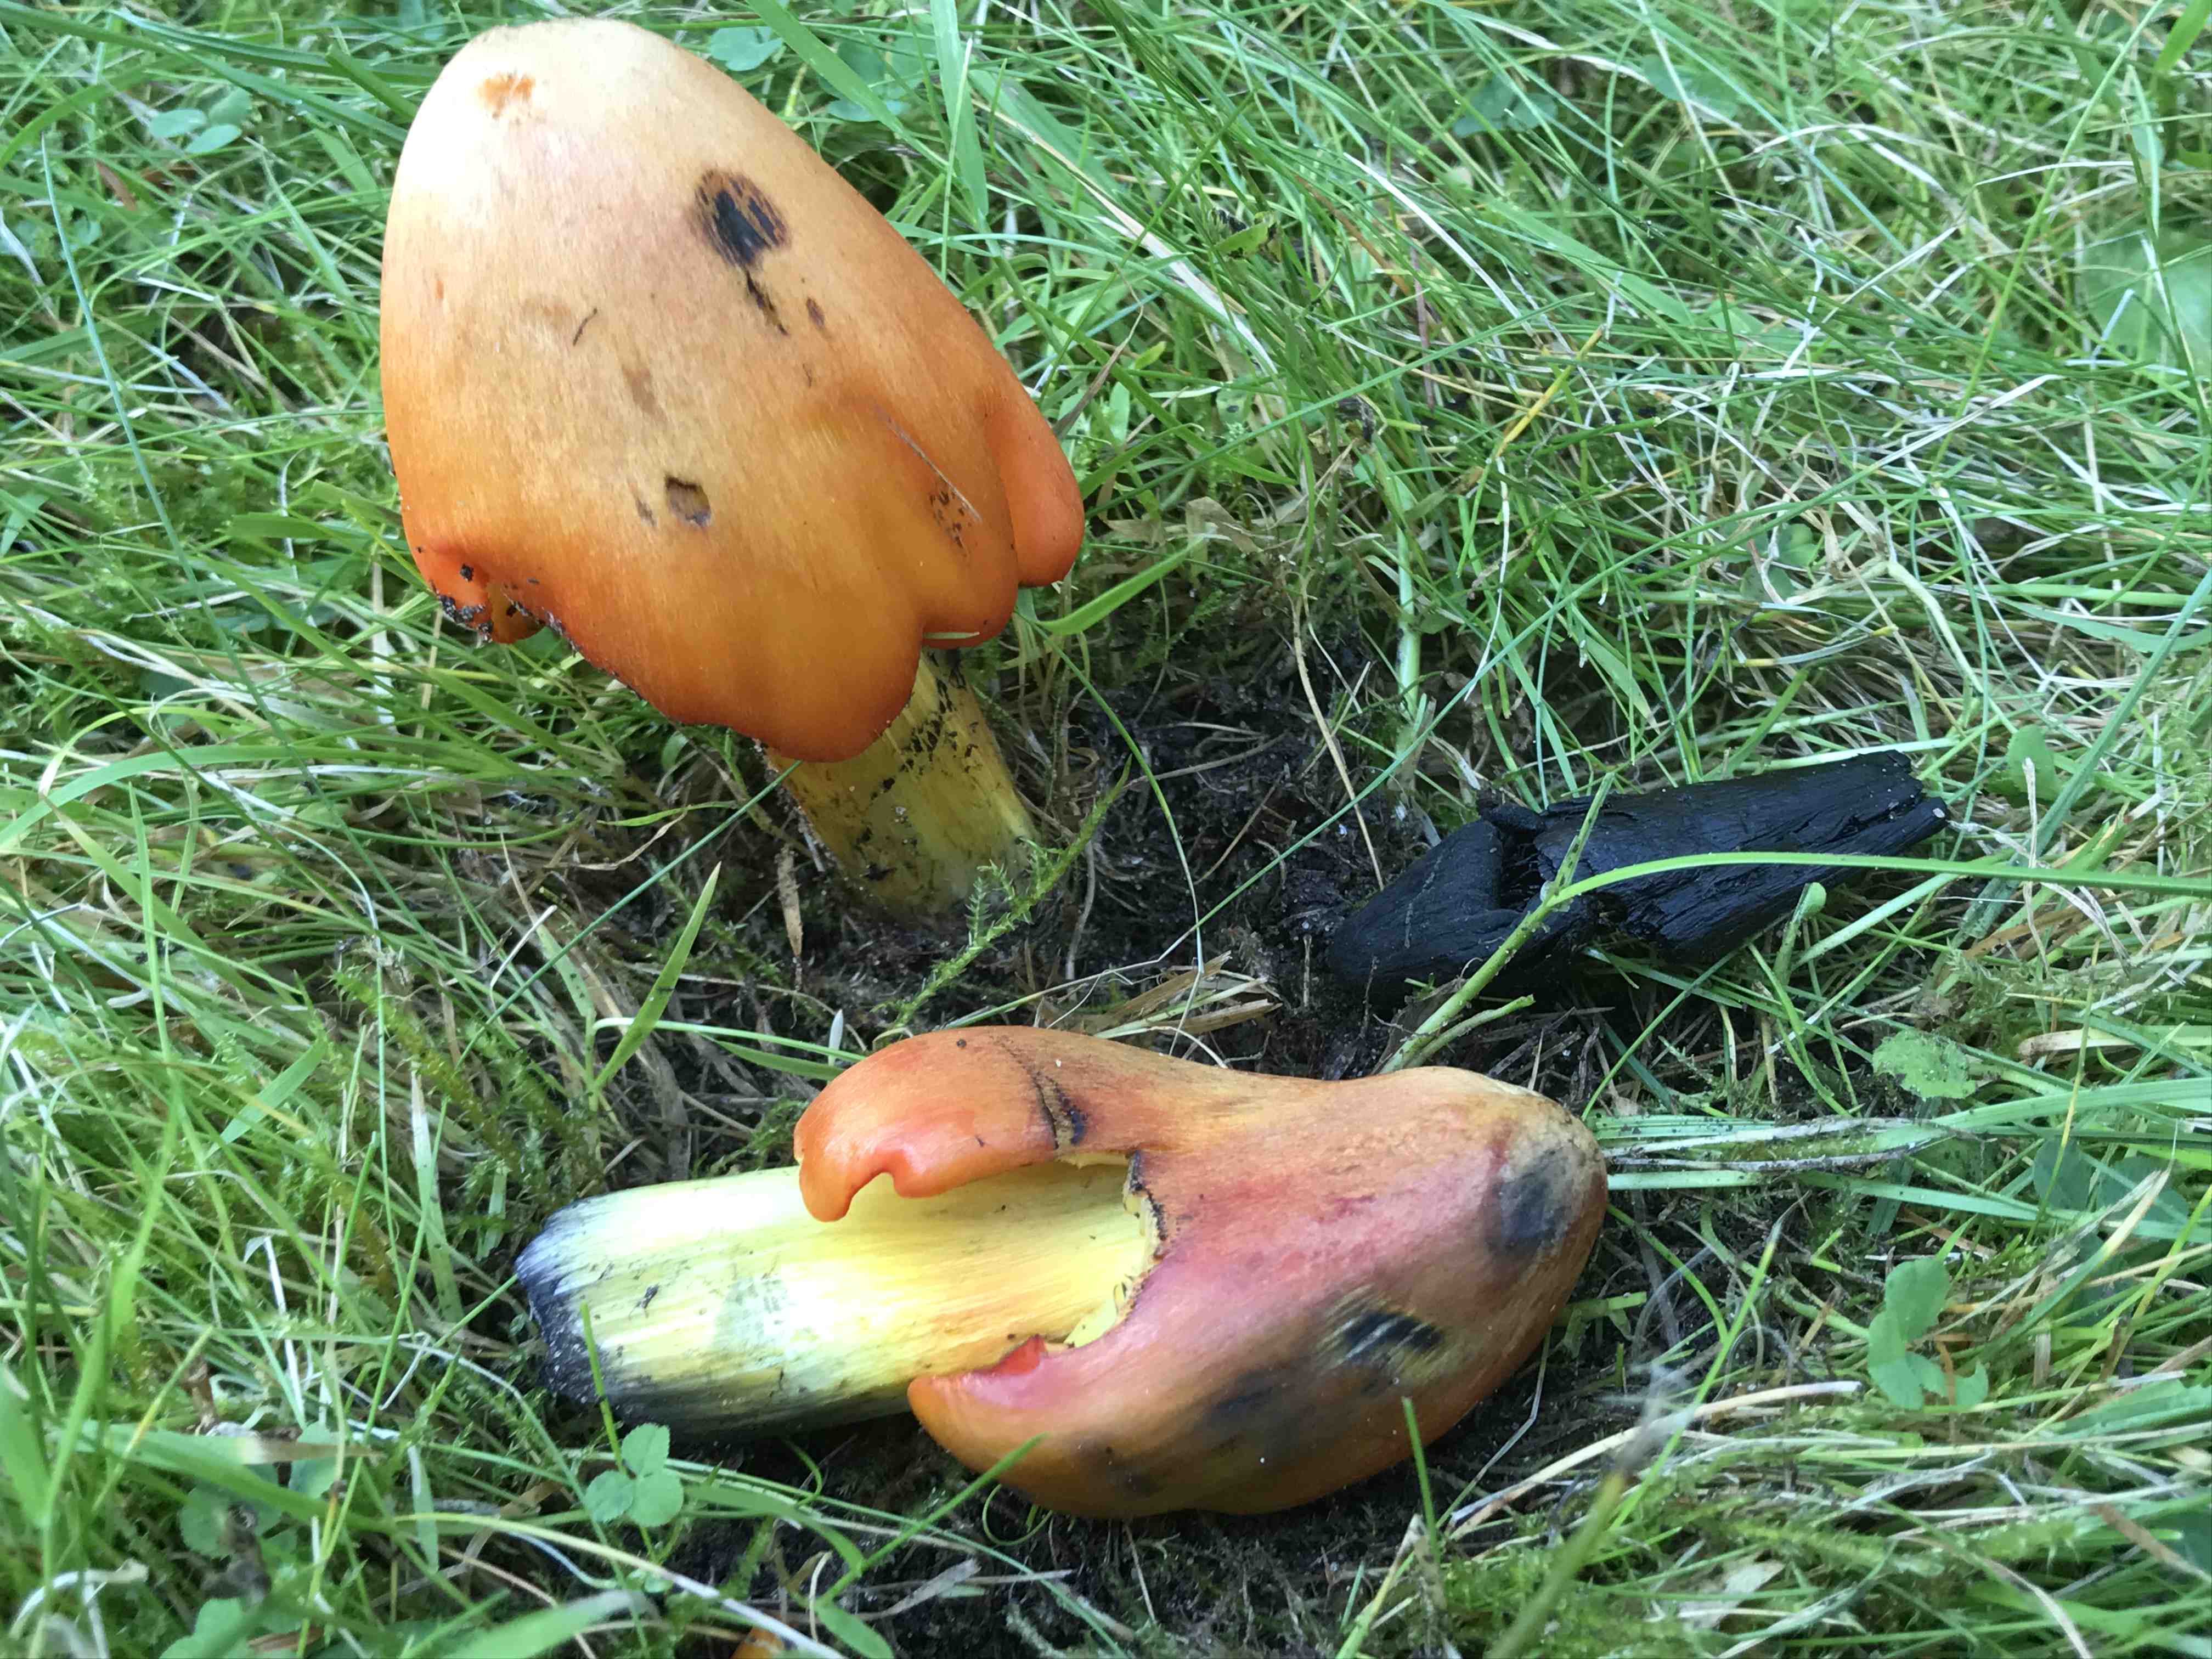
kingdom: Fungi
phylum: Basidiomycota
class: Agaricomycetes
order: Agaricales
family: Hygrophoraceae
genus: Hygrocybe
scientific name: Hygrocybe conica
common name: kegle-vokshat
